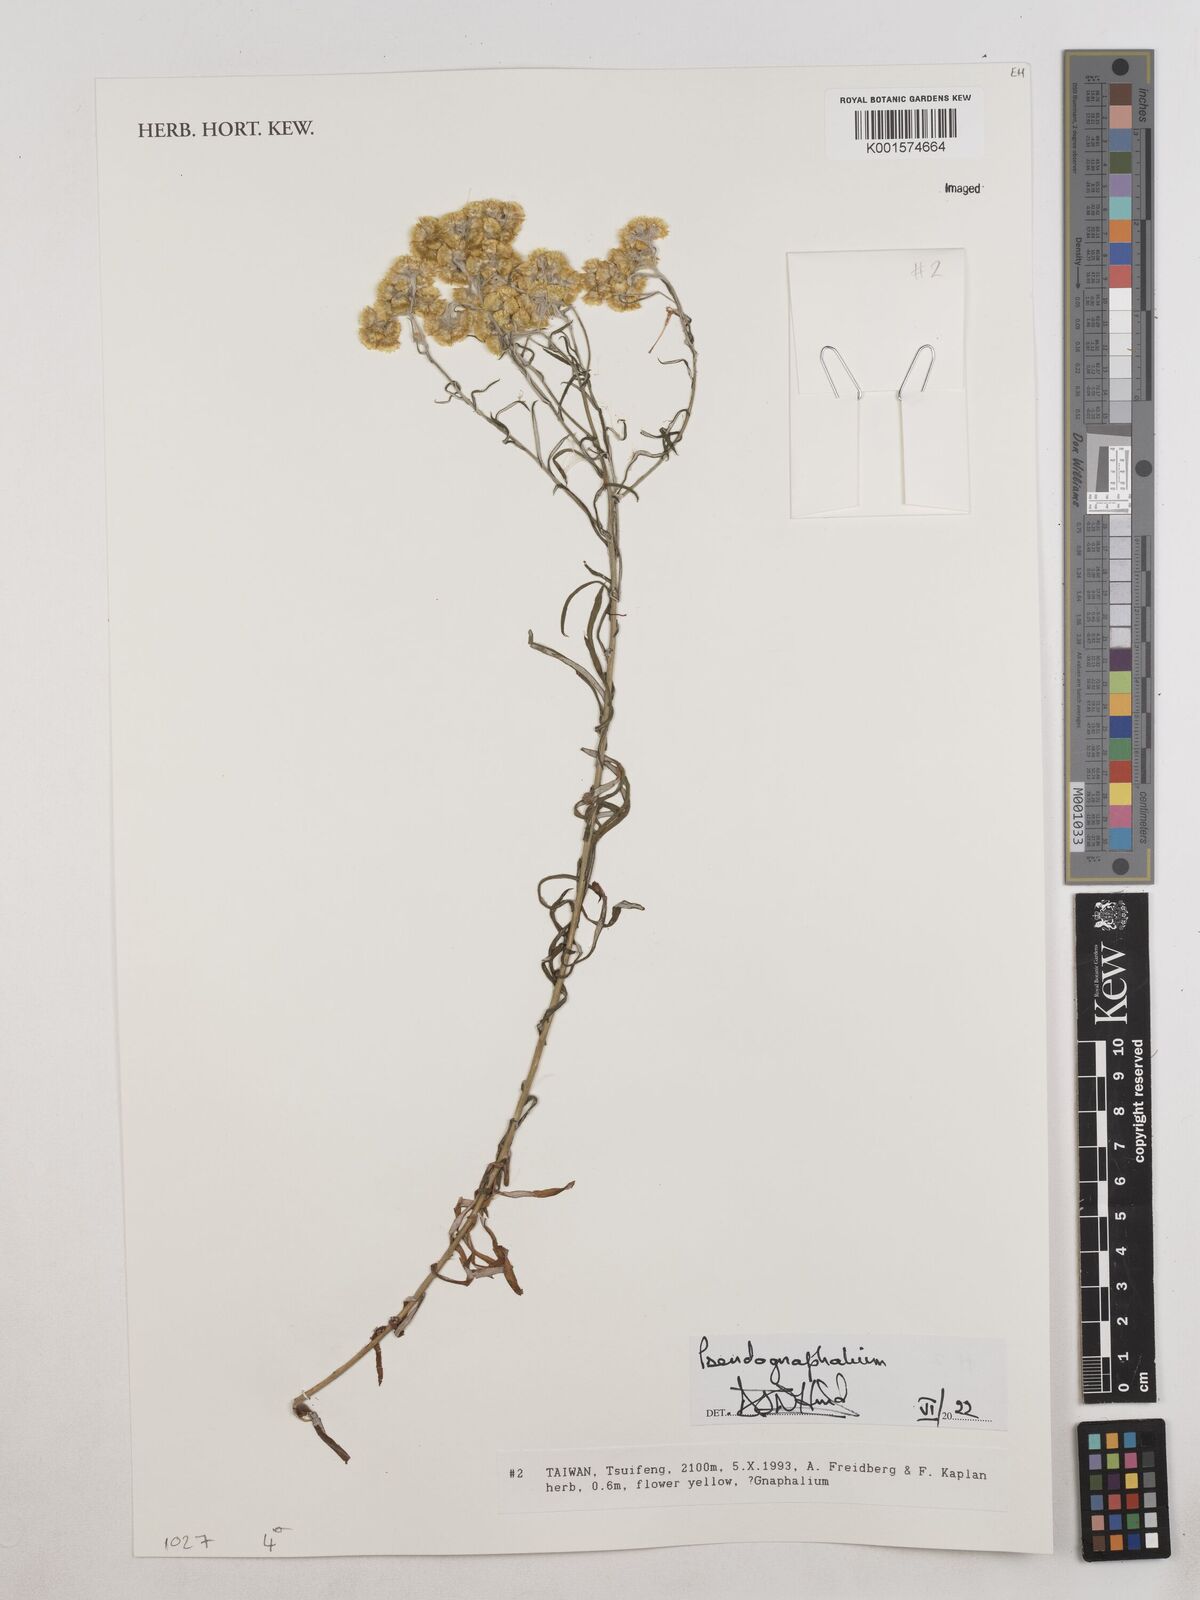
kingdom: Plantae
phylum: Tracheophyta
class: Magnoliopsida
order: Asterales
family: Asteraceae
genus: Pseudognaphalium
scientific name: Pseudognaphalium
